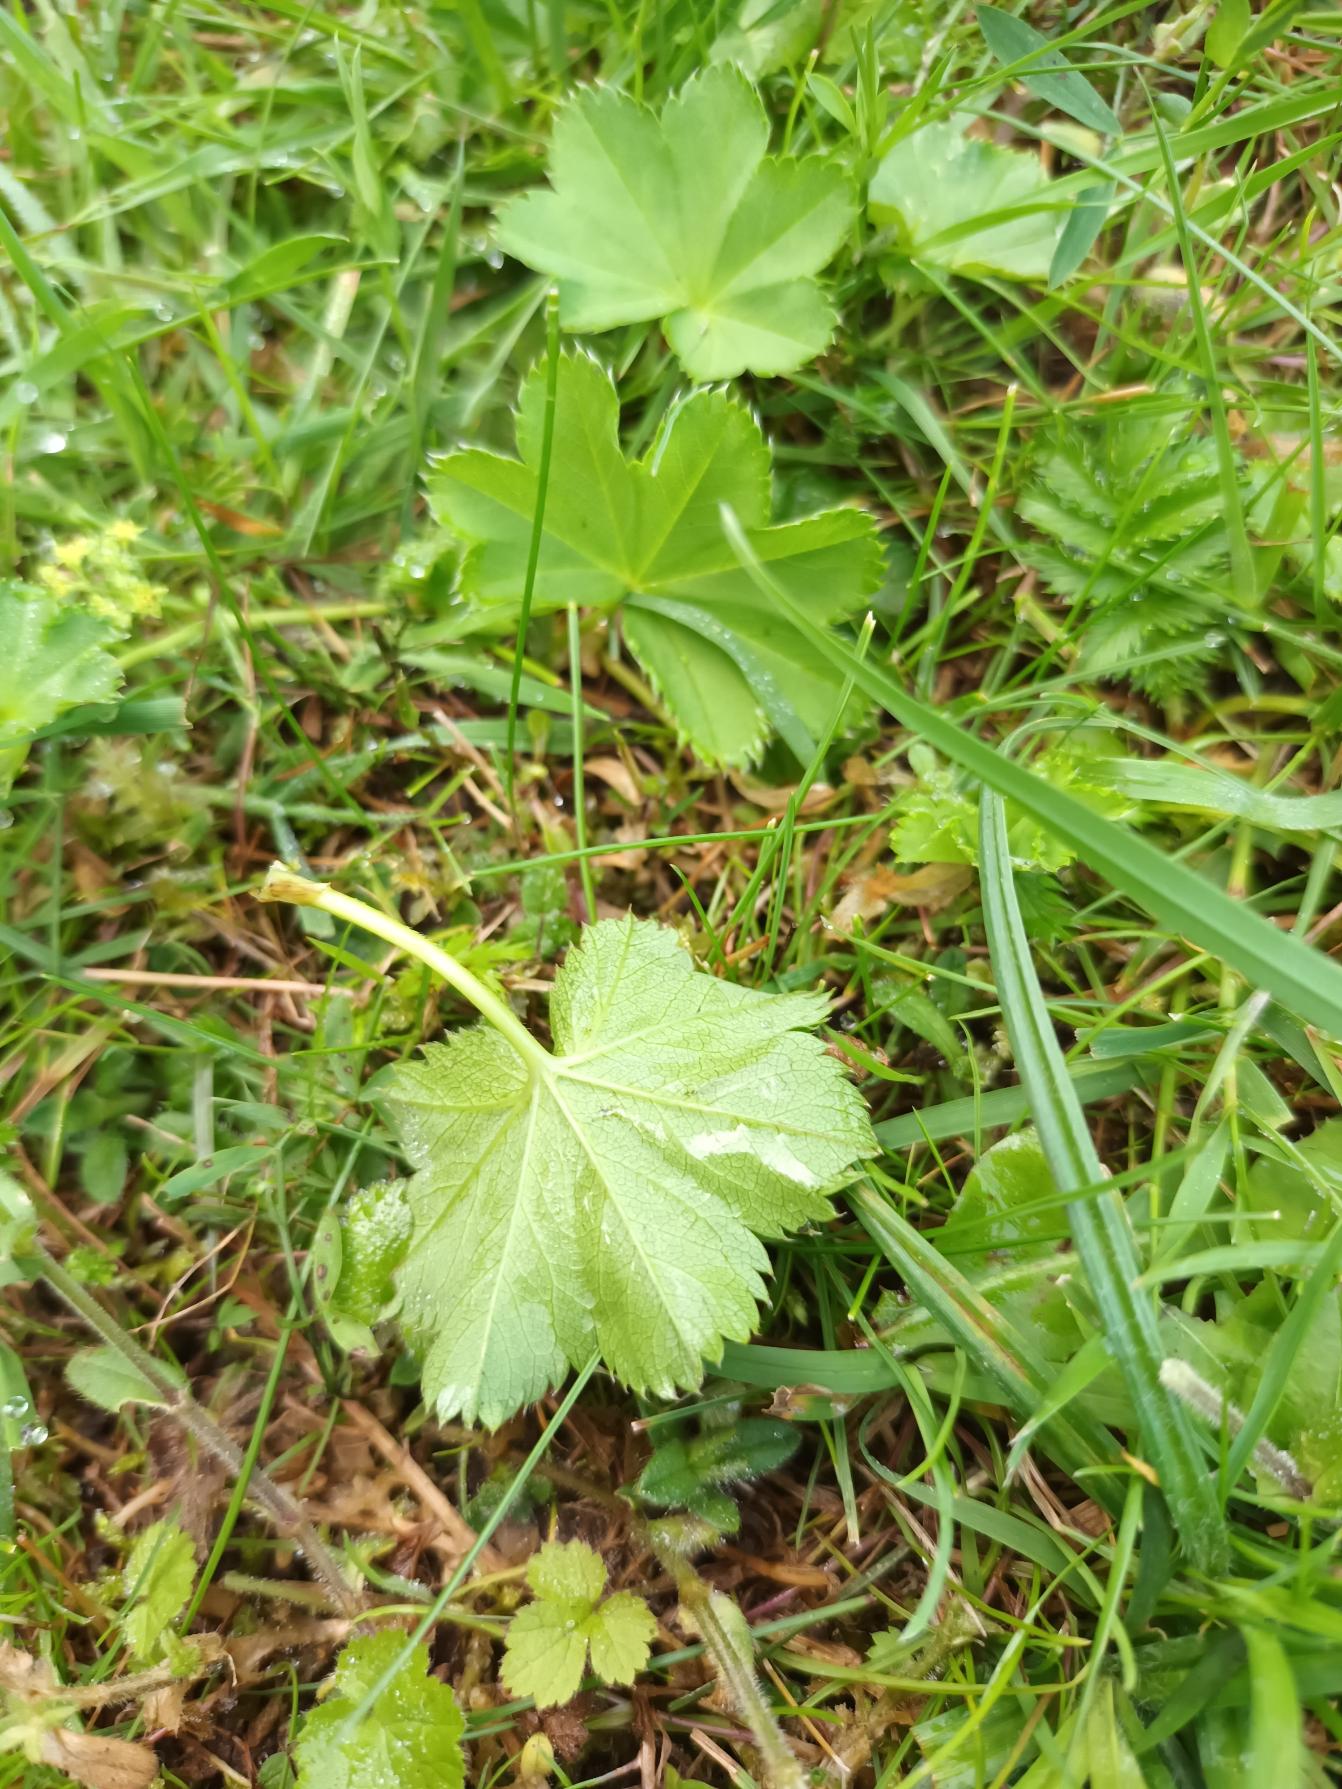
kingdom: Plantae
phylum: Tracheophyta
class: Magnoliopsida
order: Rosales
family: Rosaceae
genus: Alchemilla
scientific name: Alchemilla glabra
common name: Glat løvefod
